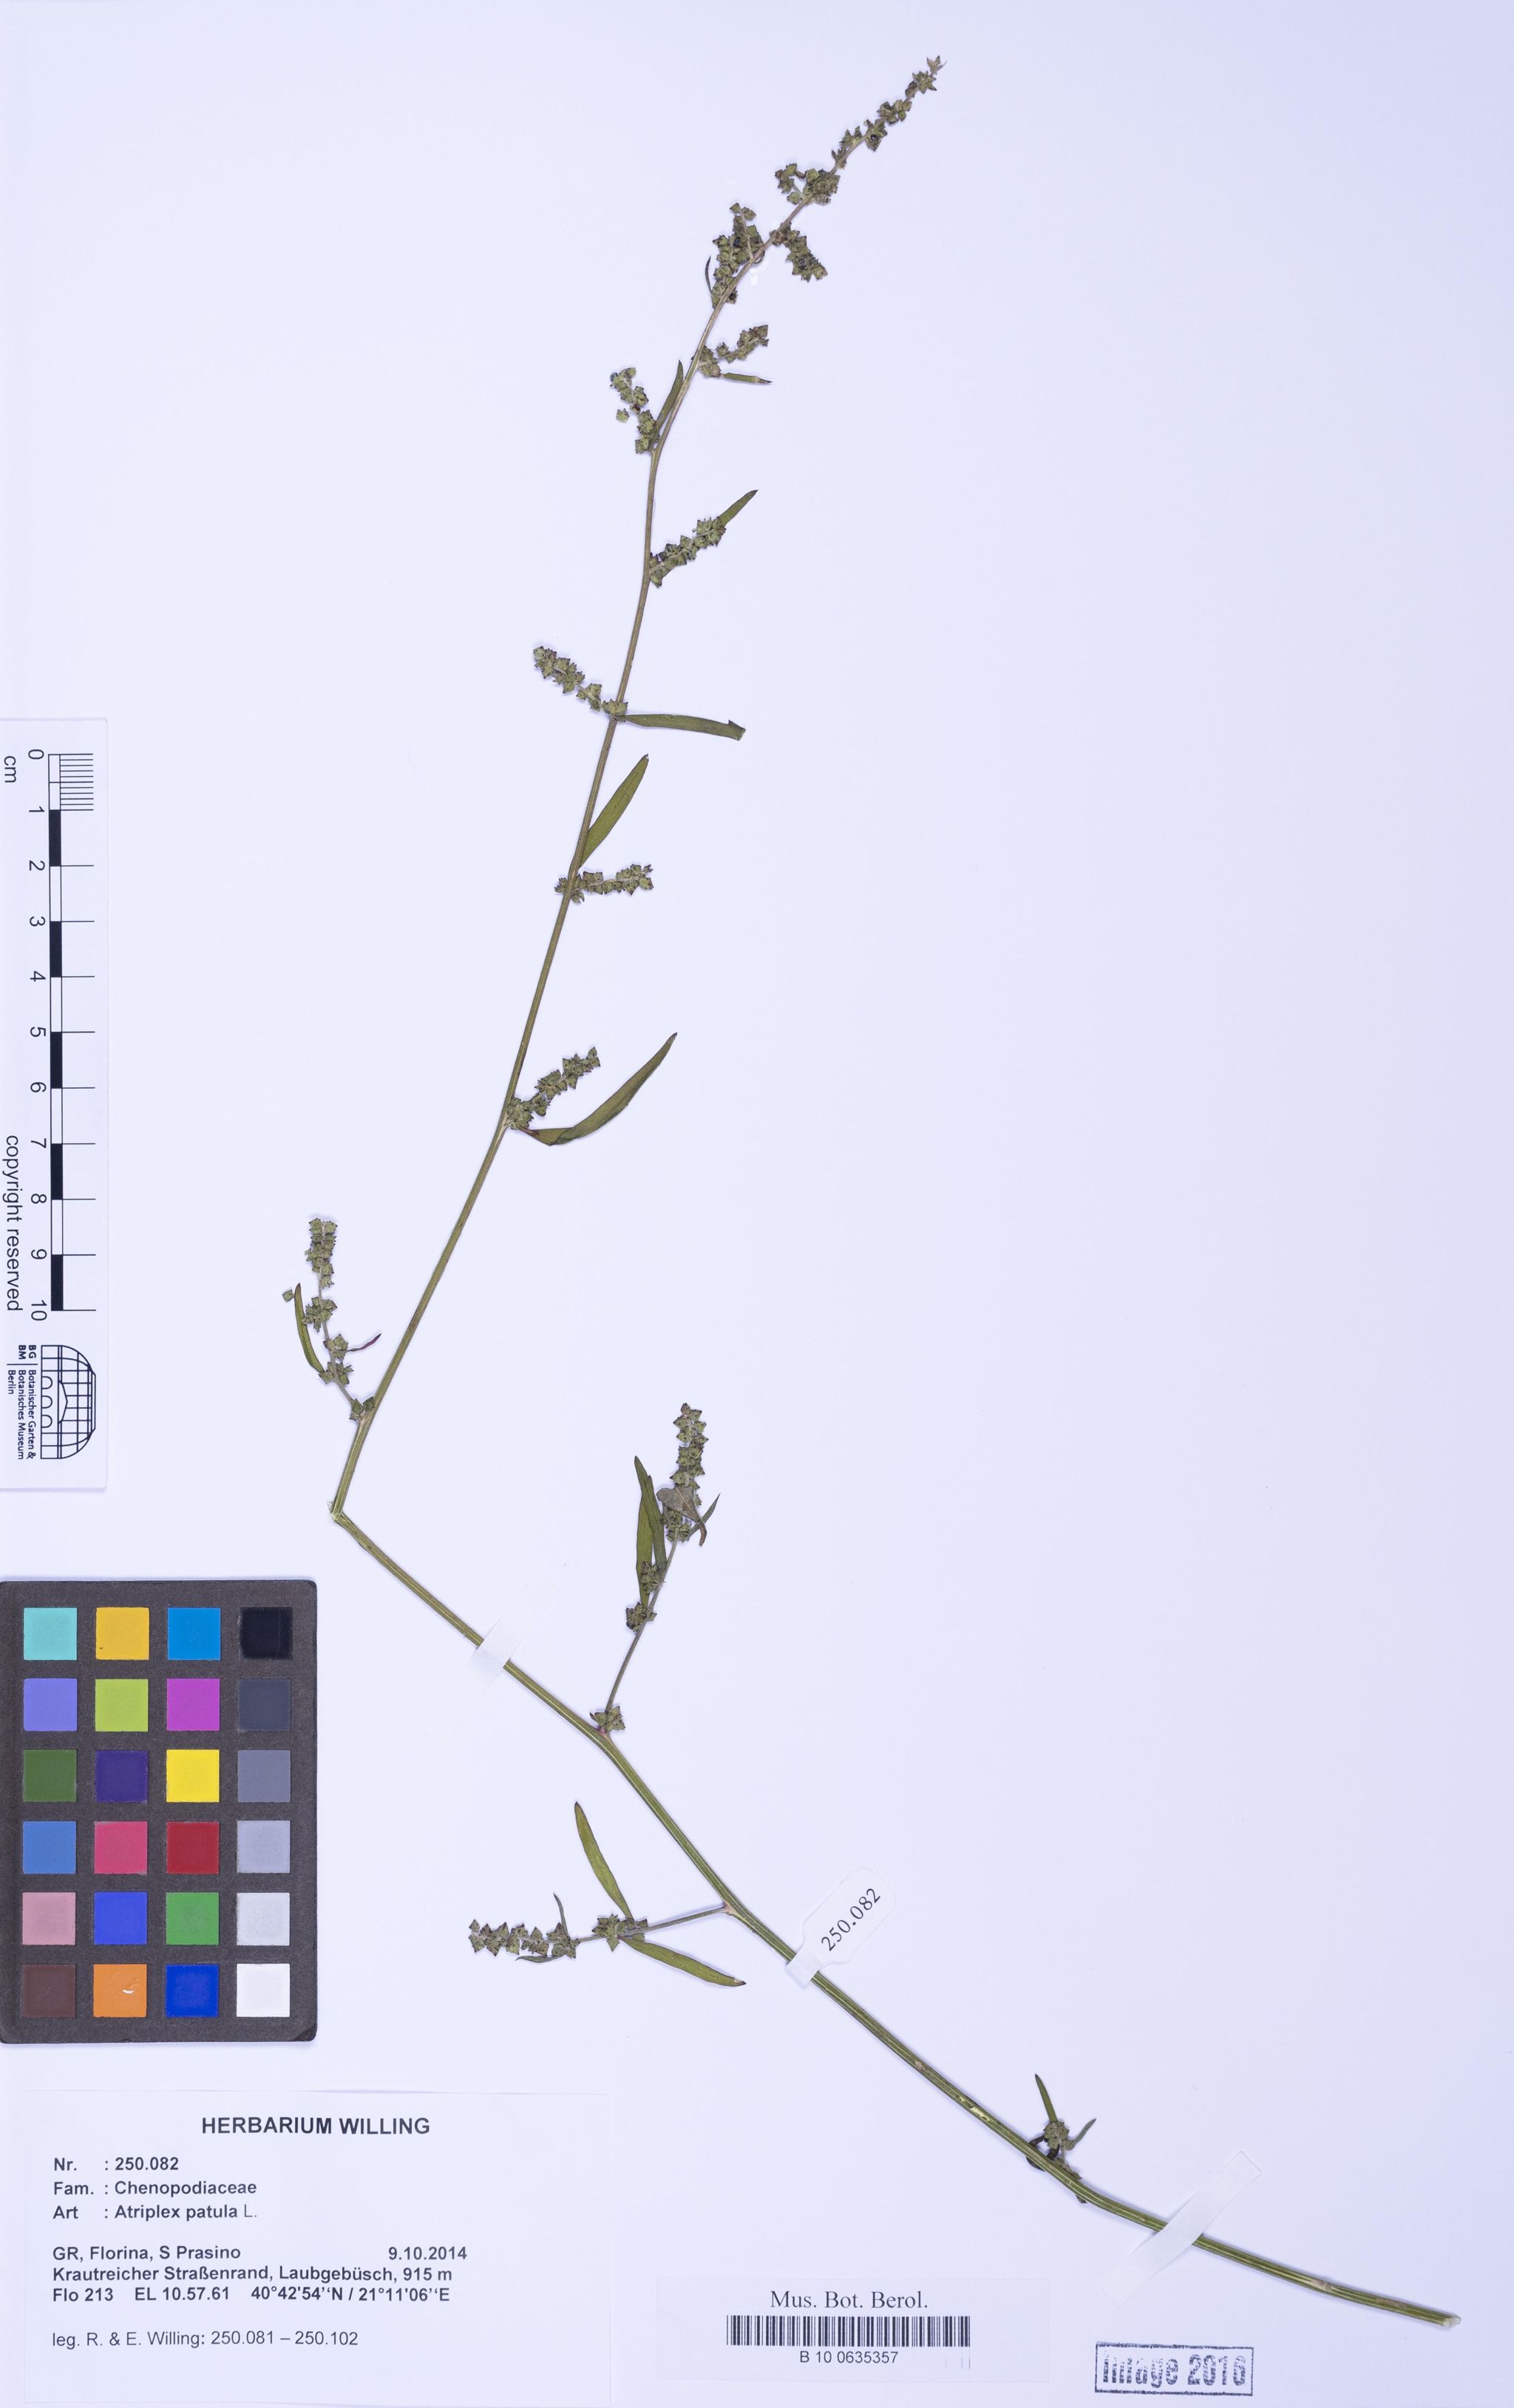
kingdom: Plantae
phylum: Tracheophyta
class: Magnoliopsida
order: Caryophyllales
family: Amaranthaceae
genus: Atriplex
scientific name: Atriplex patula
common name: Common orache
